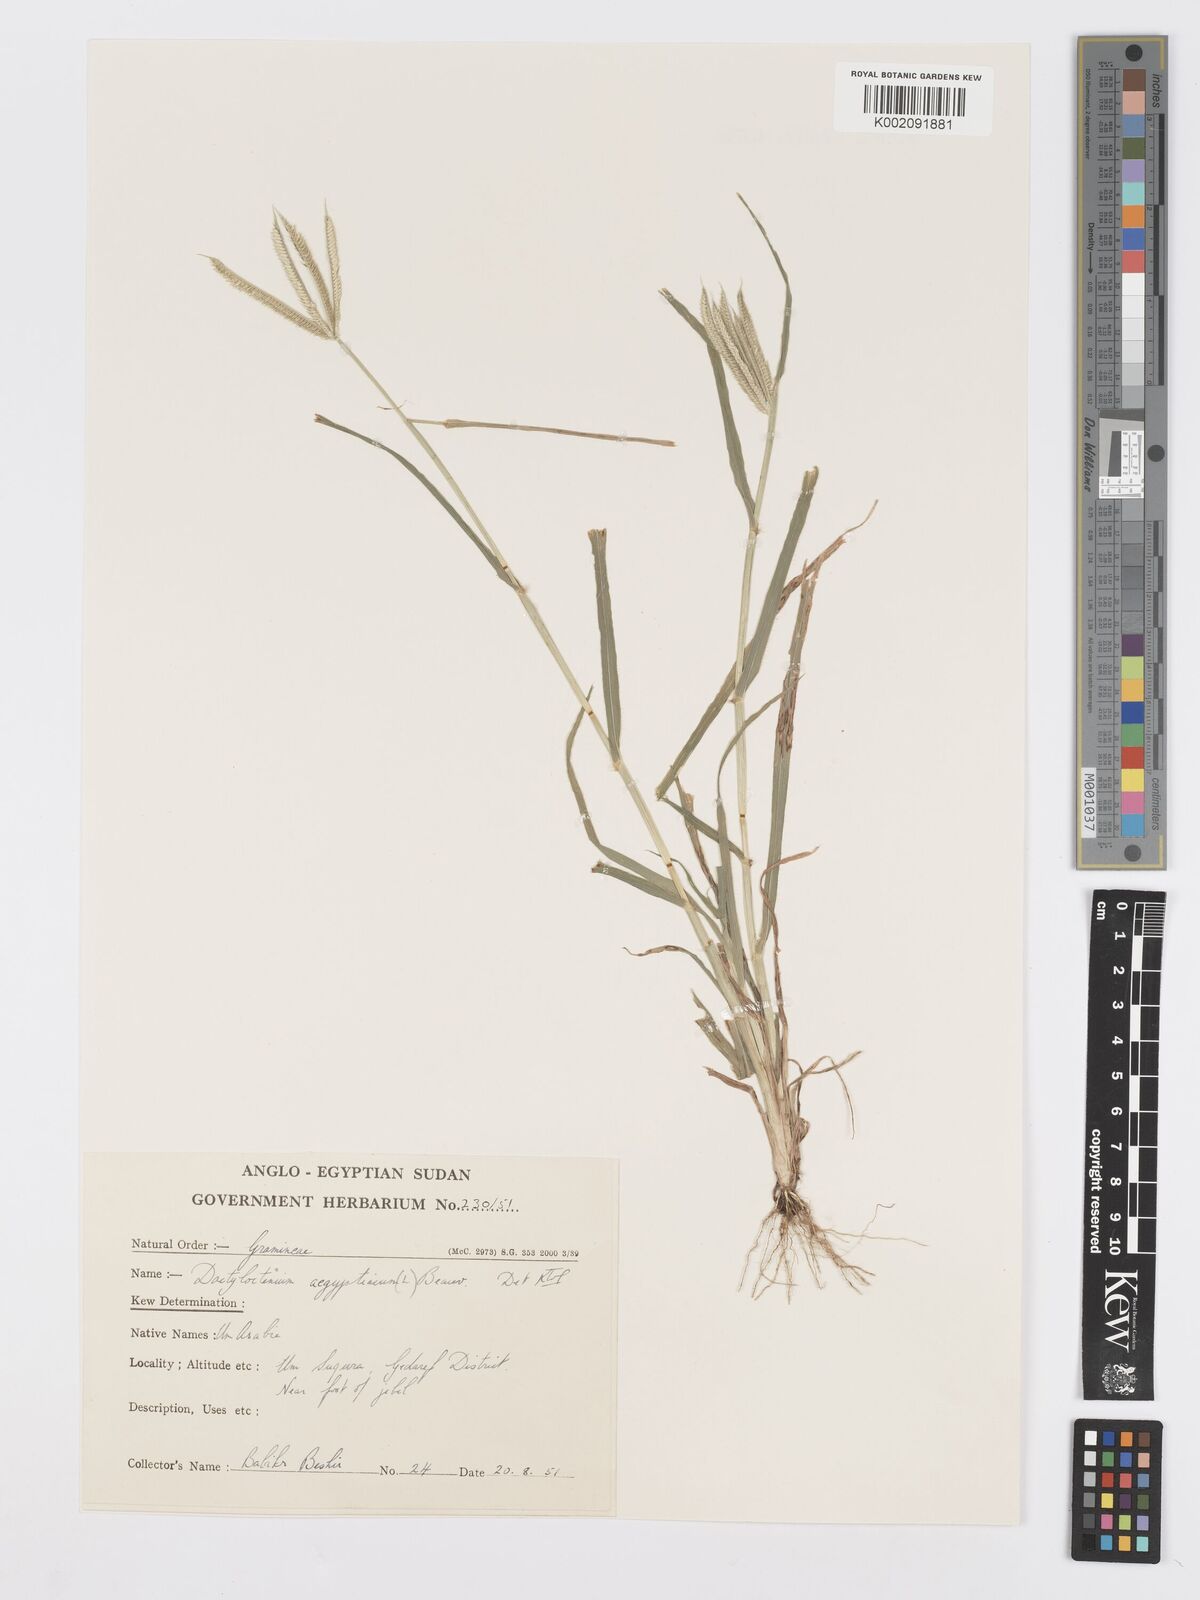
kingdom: Plantae
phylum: Tracheophyta
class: Liliopsida
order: Poales
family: Poaceae
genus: Dactyloctenium
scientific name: Dactyloctenium aegyptium
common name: Egyptian grass
